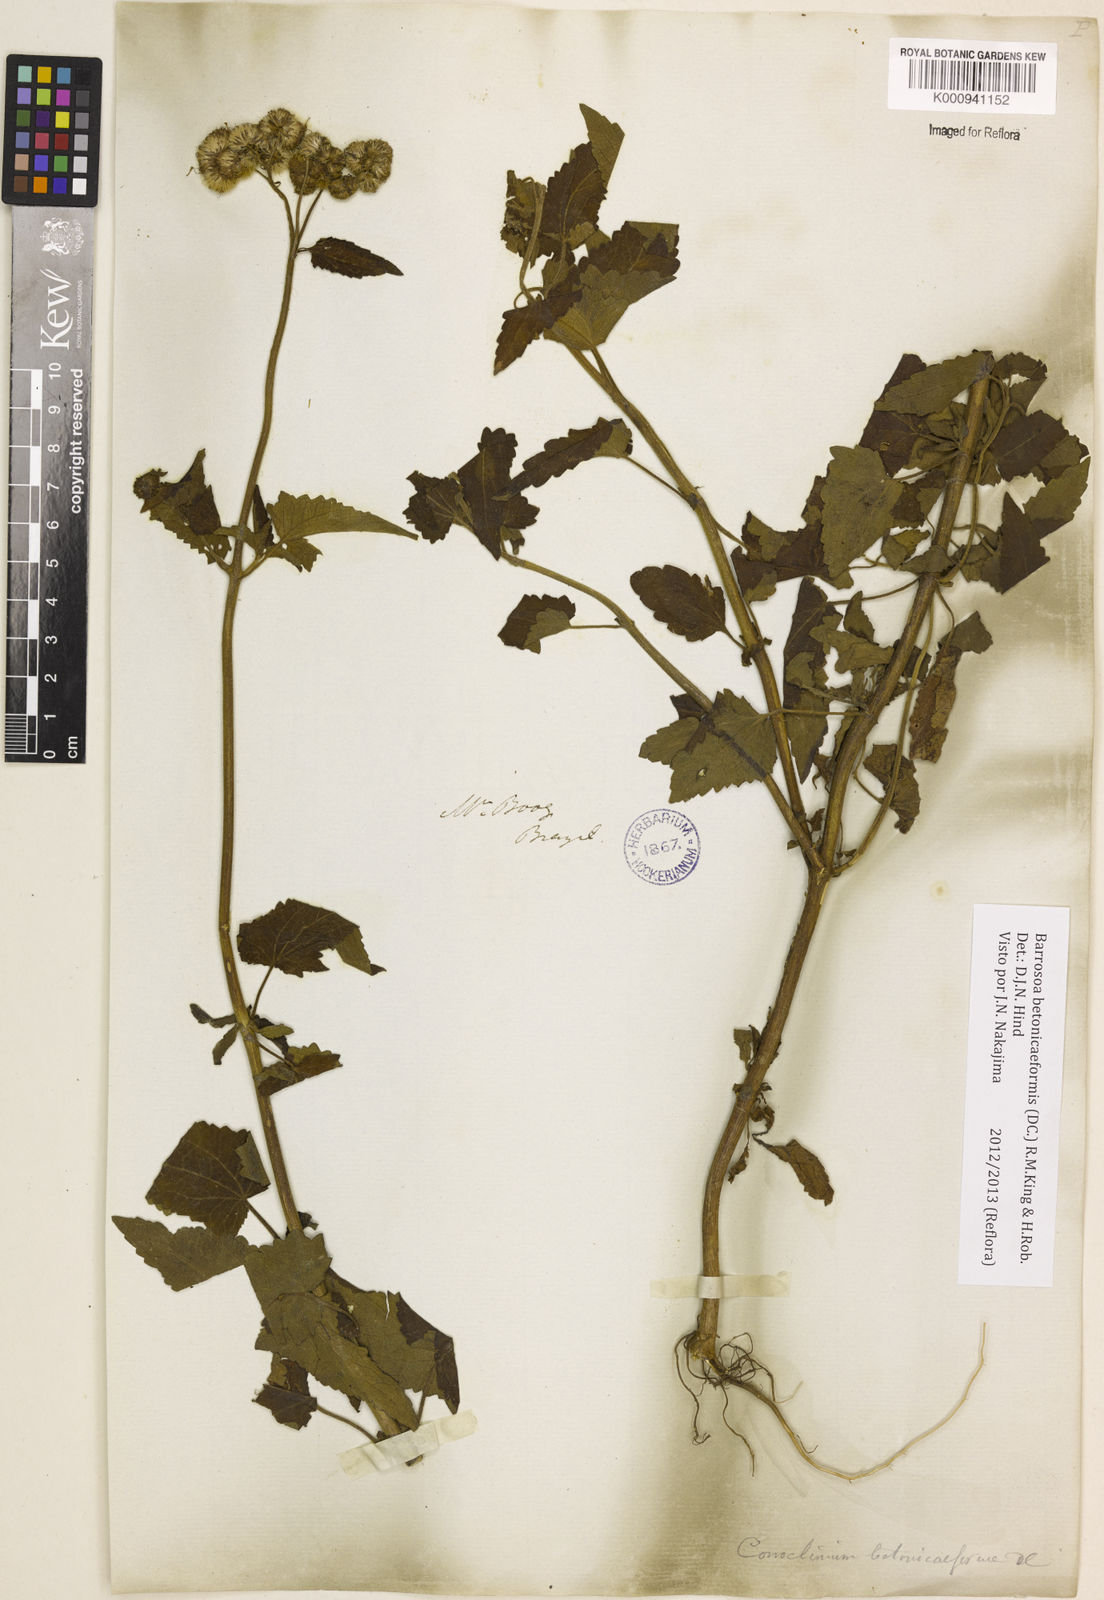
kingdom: Plantae
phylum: Tracheophyta
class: Magnoliopsida
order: Asterales
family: Asteraceae
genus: Barrosoa
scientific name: Barrosoa betoniciformis
